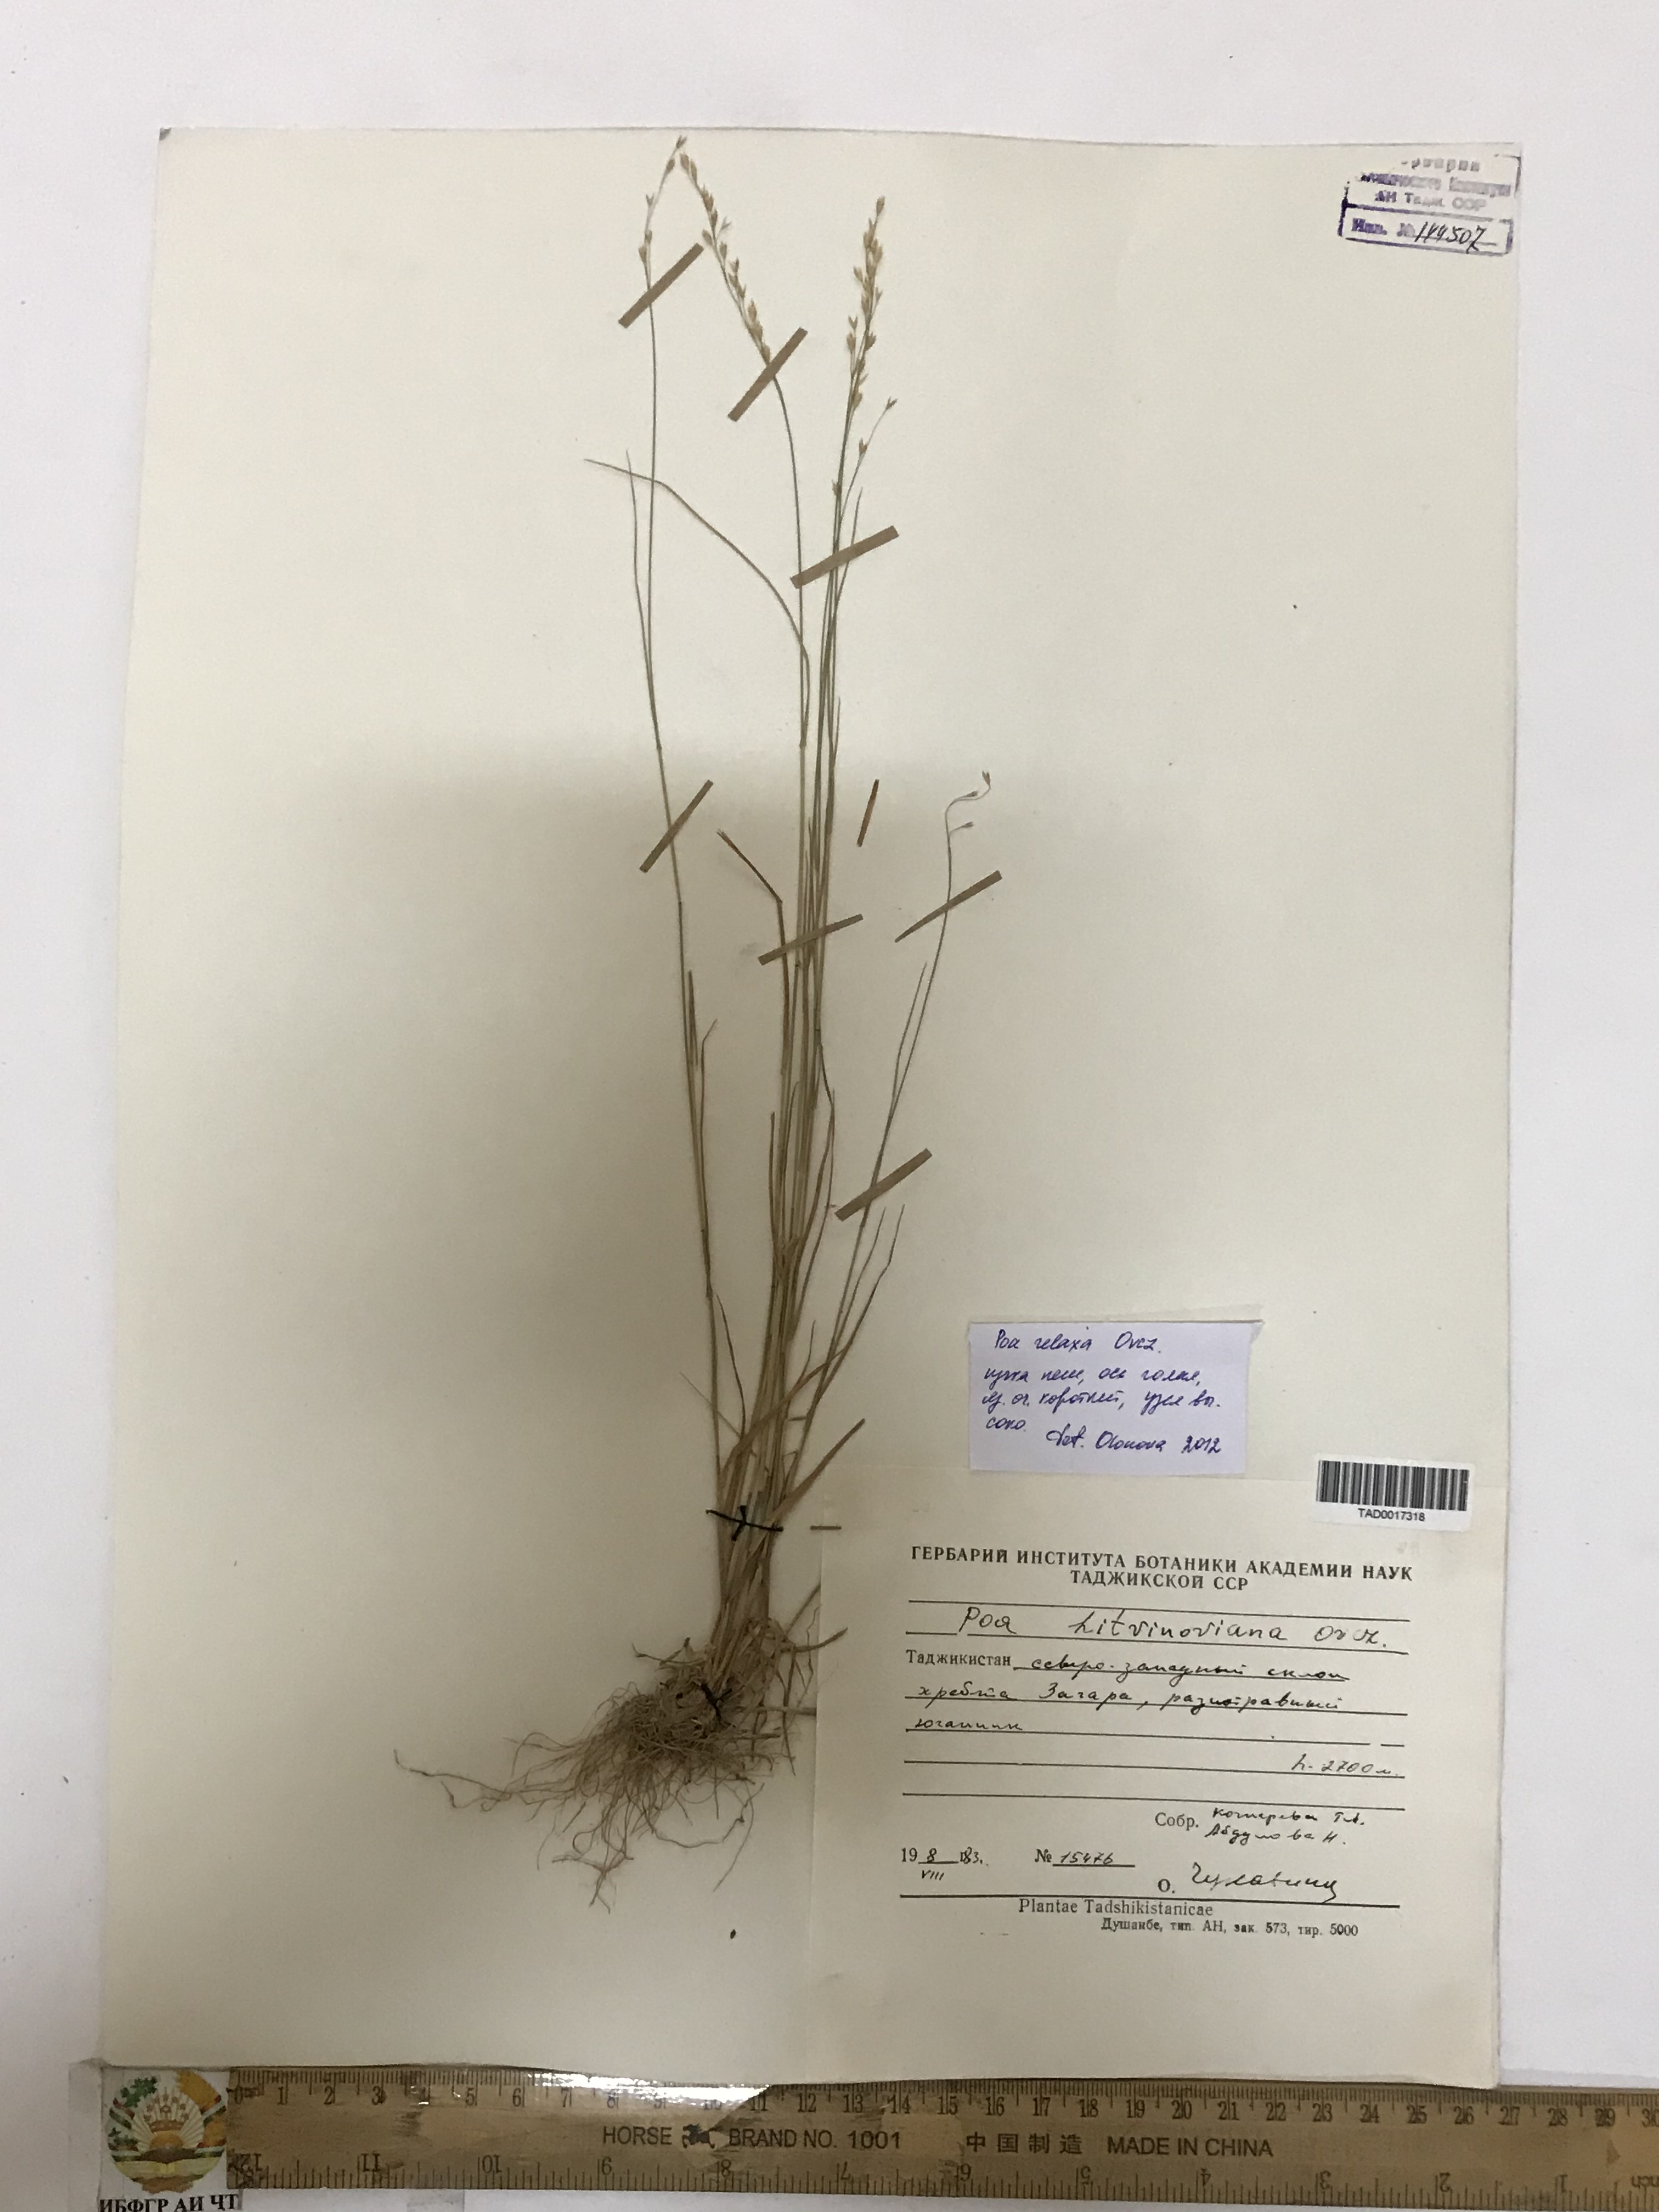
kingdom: Plantae
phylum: Tracheophyta
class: Liliopsida
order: Poales
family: Poaceae
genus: Poa
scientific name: Poa glauca
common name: Glaucous bluegrass
